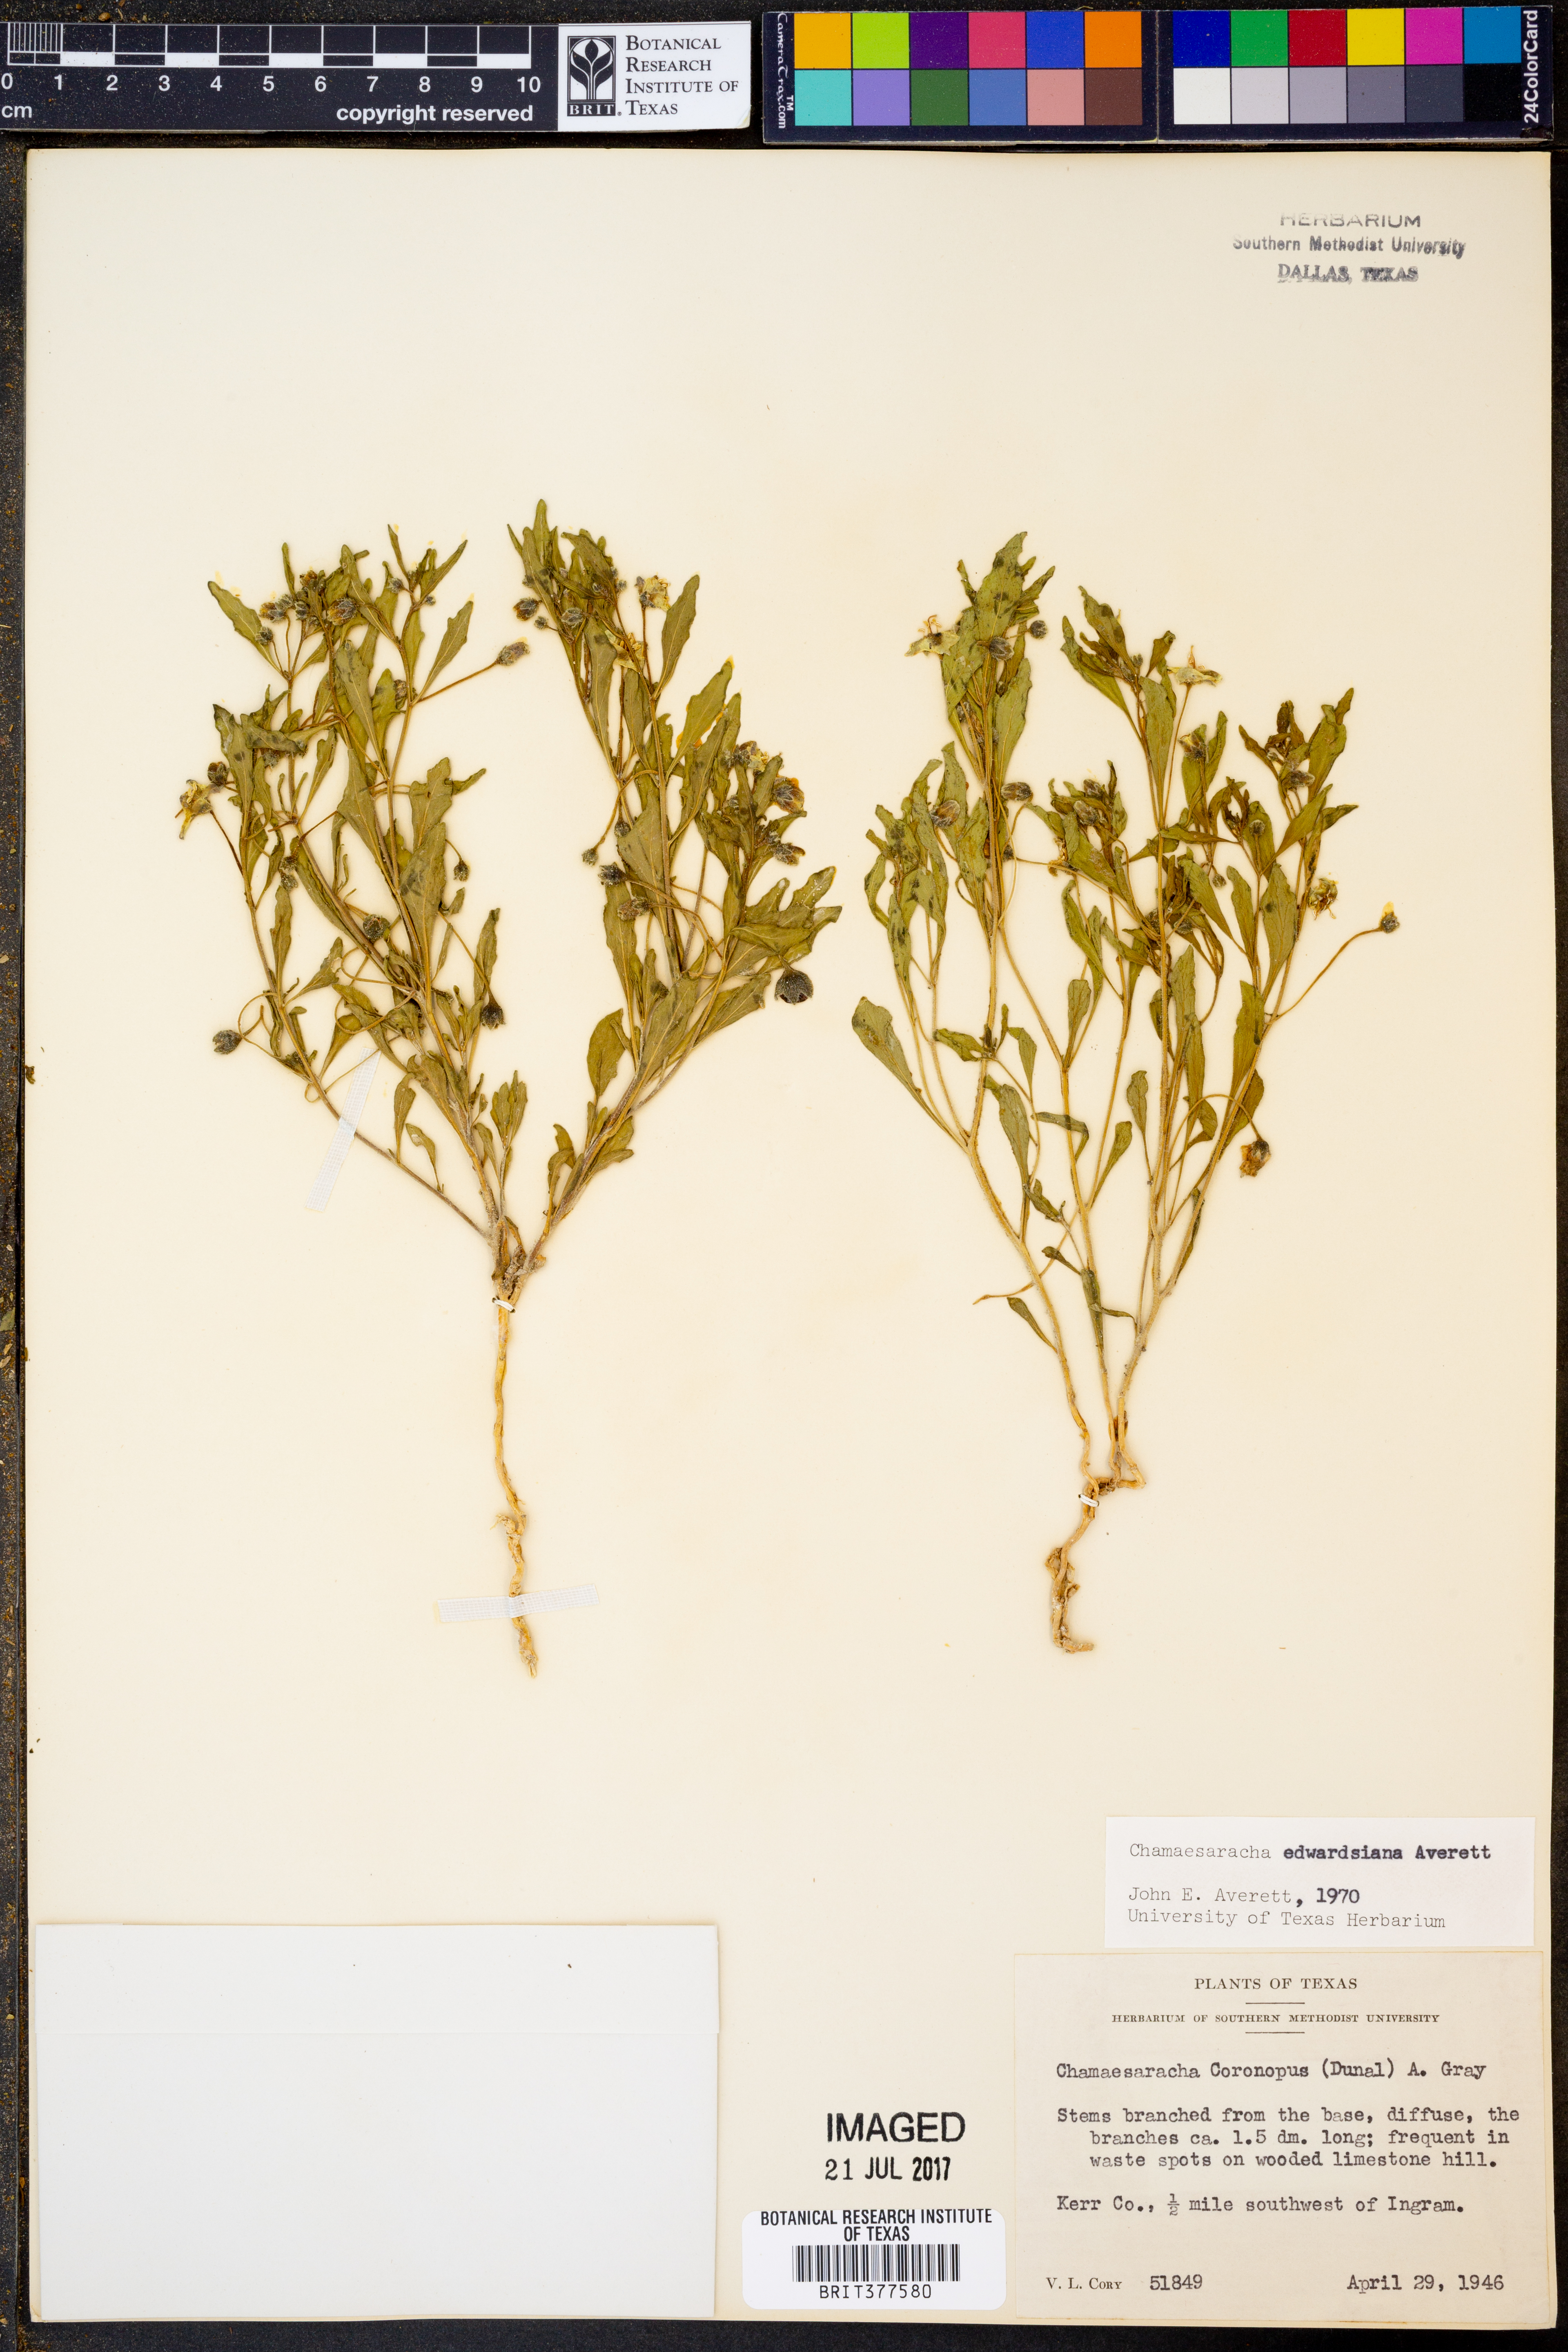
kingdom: Plantae
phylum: Tracheophyta
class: Magnoliopsida
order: Solanales
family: Solanaceae
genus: Chamaesaracha
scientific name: Chamaesaracha edwardsiana
